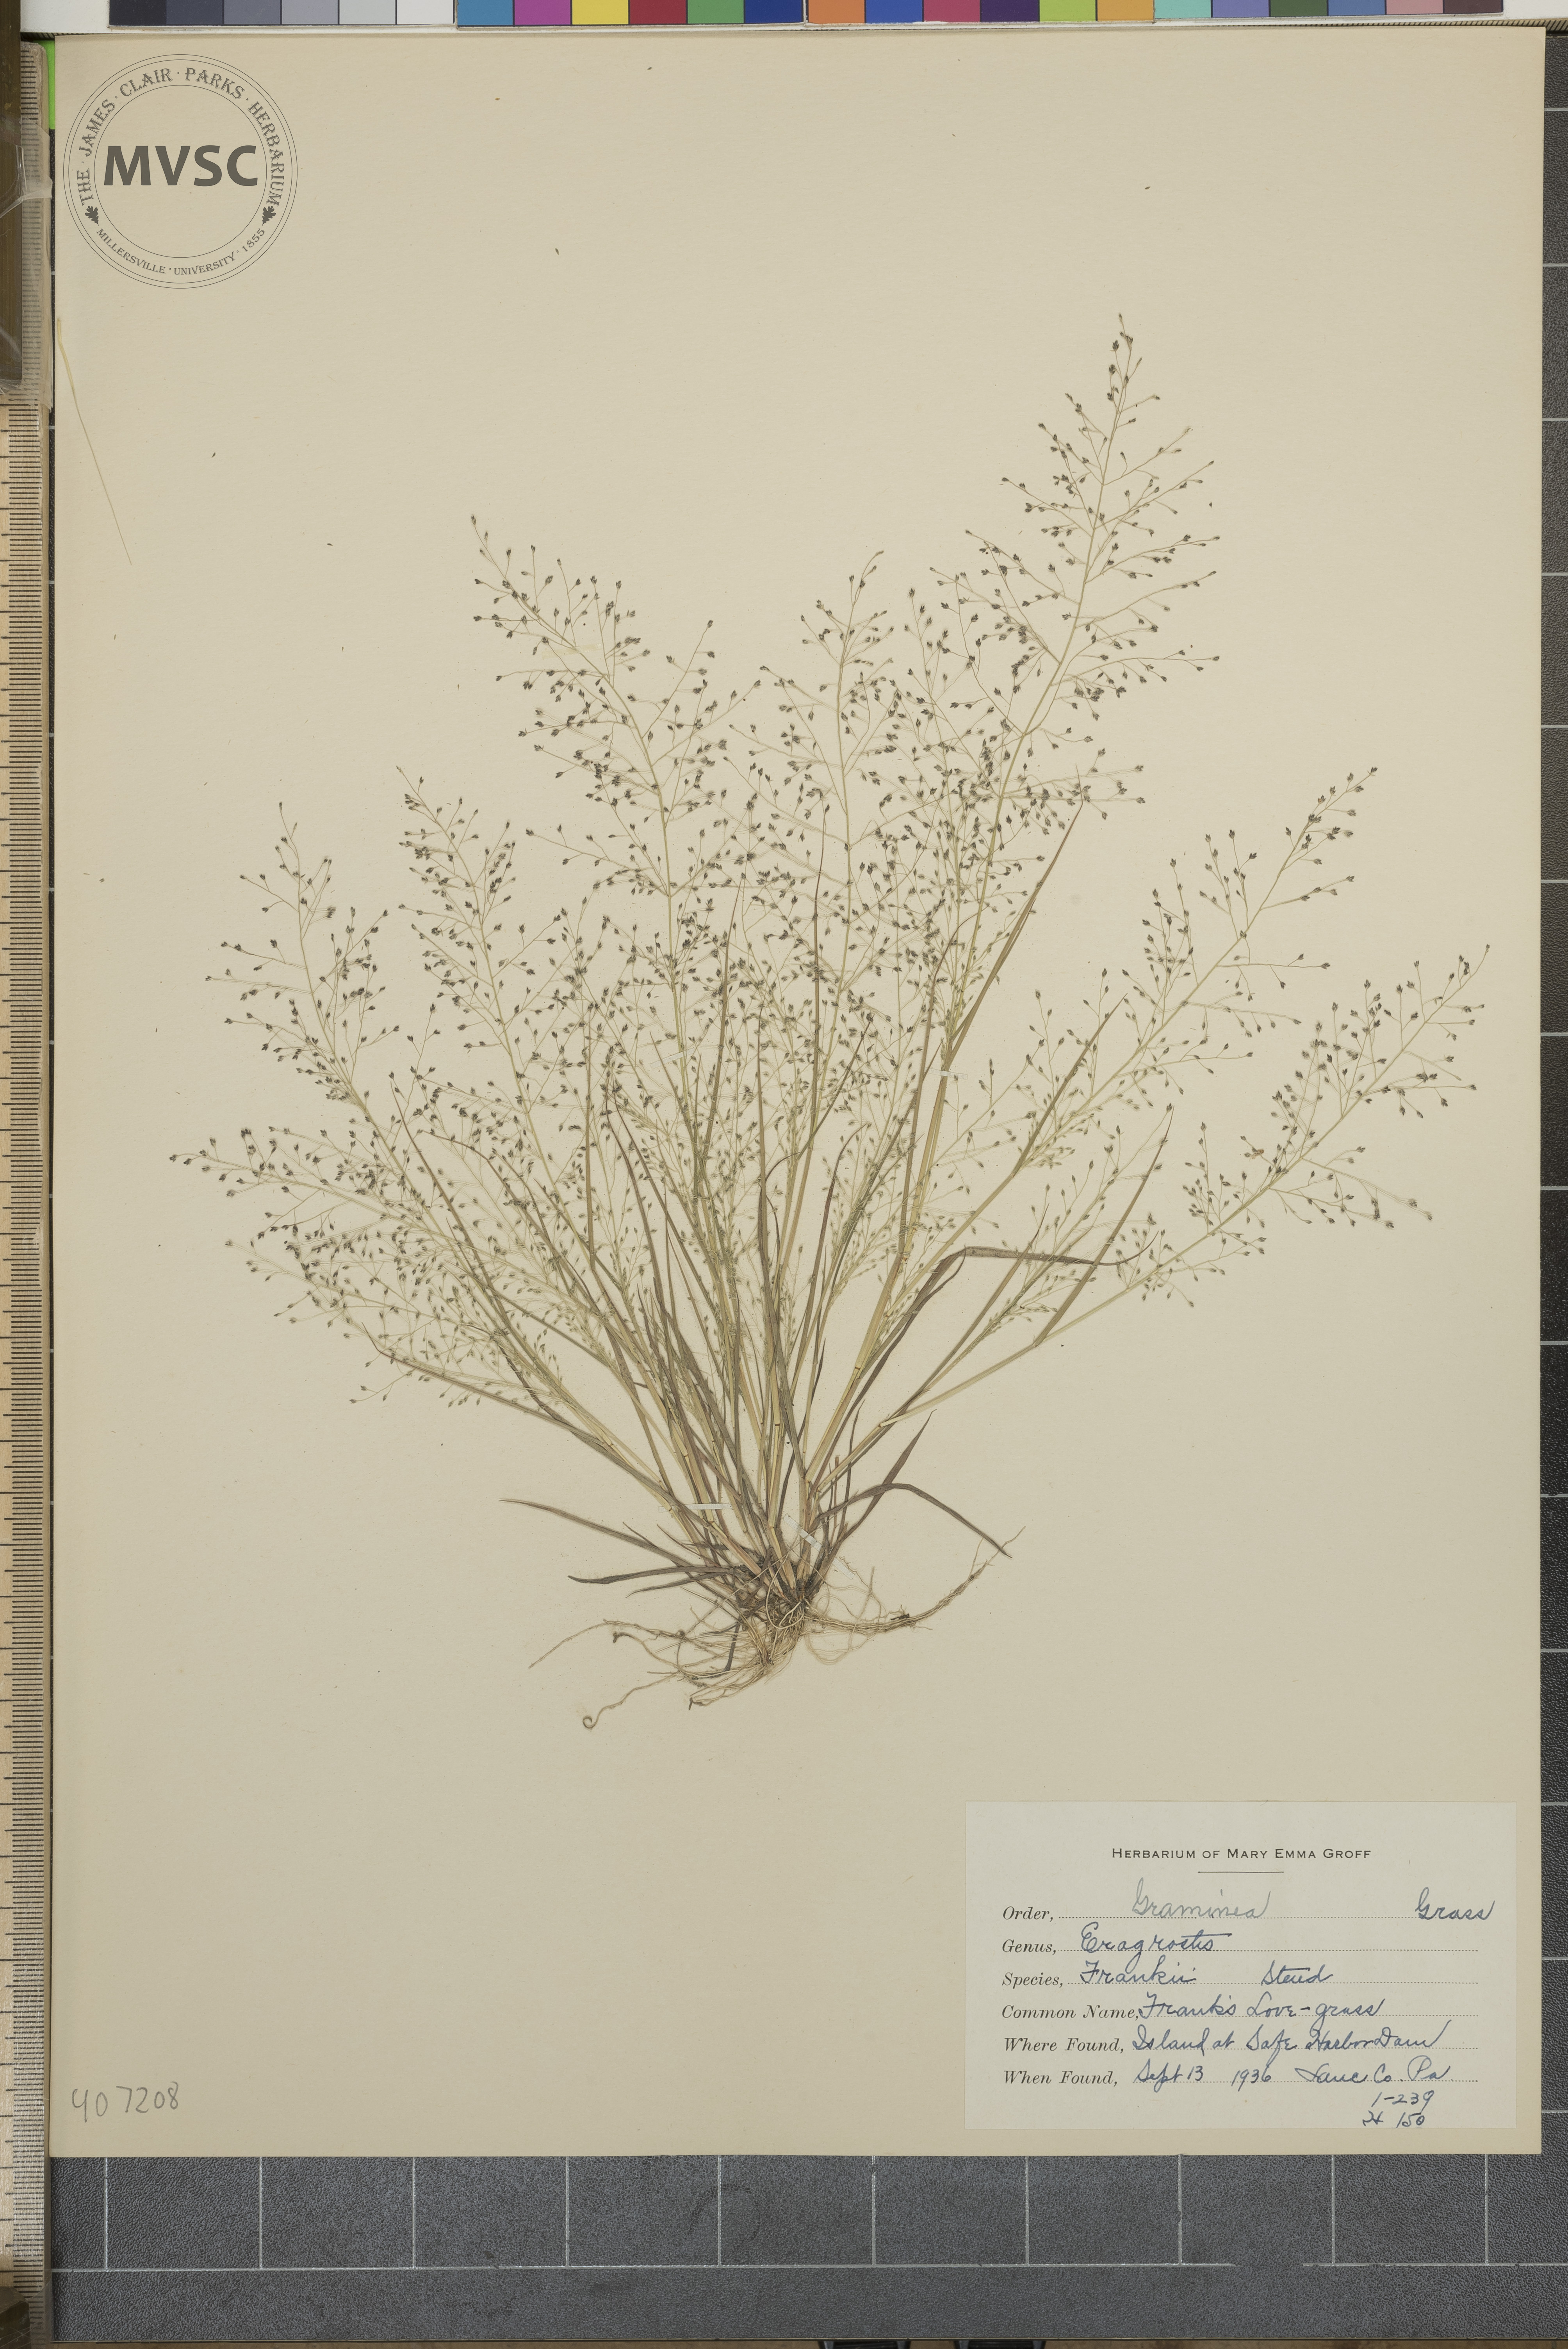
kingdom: Plantae
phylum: Tracheophyta
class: Liliopsida
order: Poales
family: Poaceae
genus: Eragrostis
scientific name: Eragrostis frankii
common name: Frank's lovegrass
